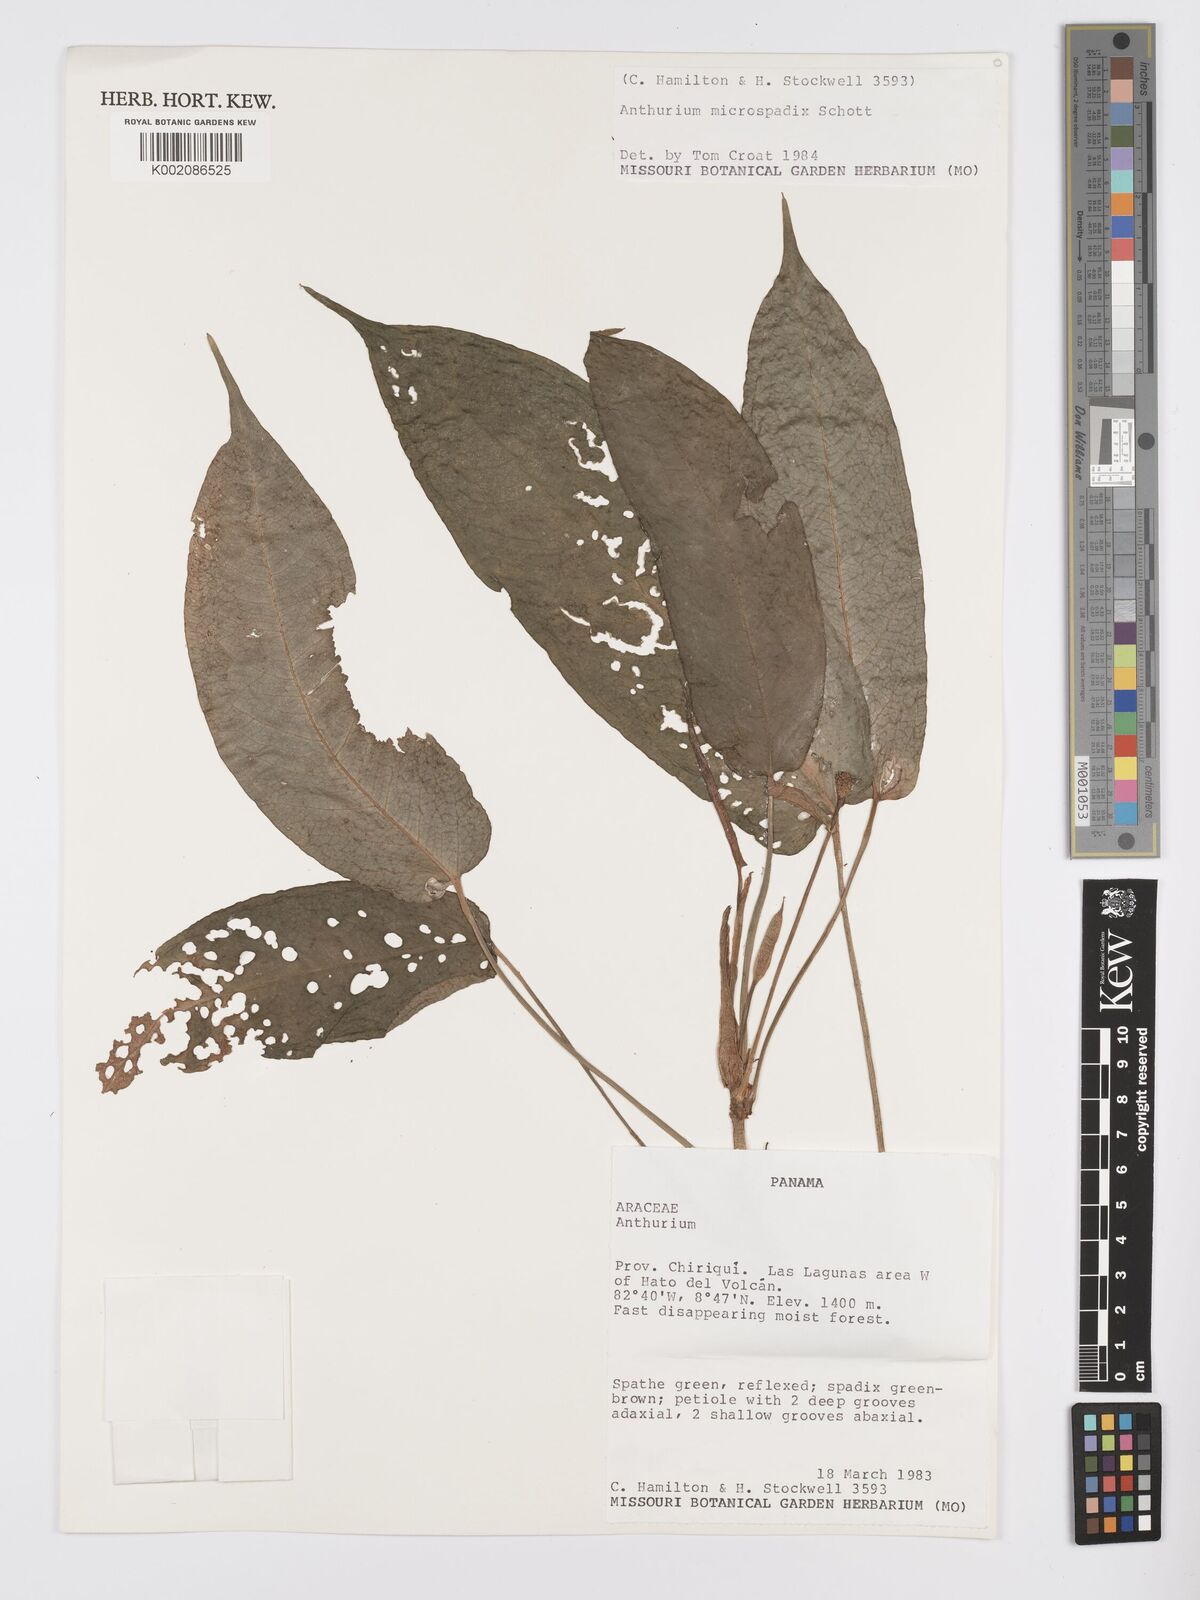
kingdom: Plantae
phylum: Tracheophyta
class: Liliopsida
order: Alismatales
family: Araceae
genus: Anthurium
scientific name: Anthurium microspadix
